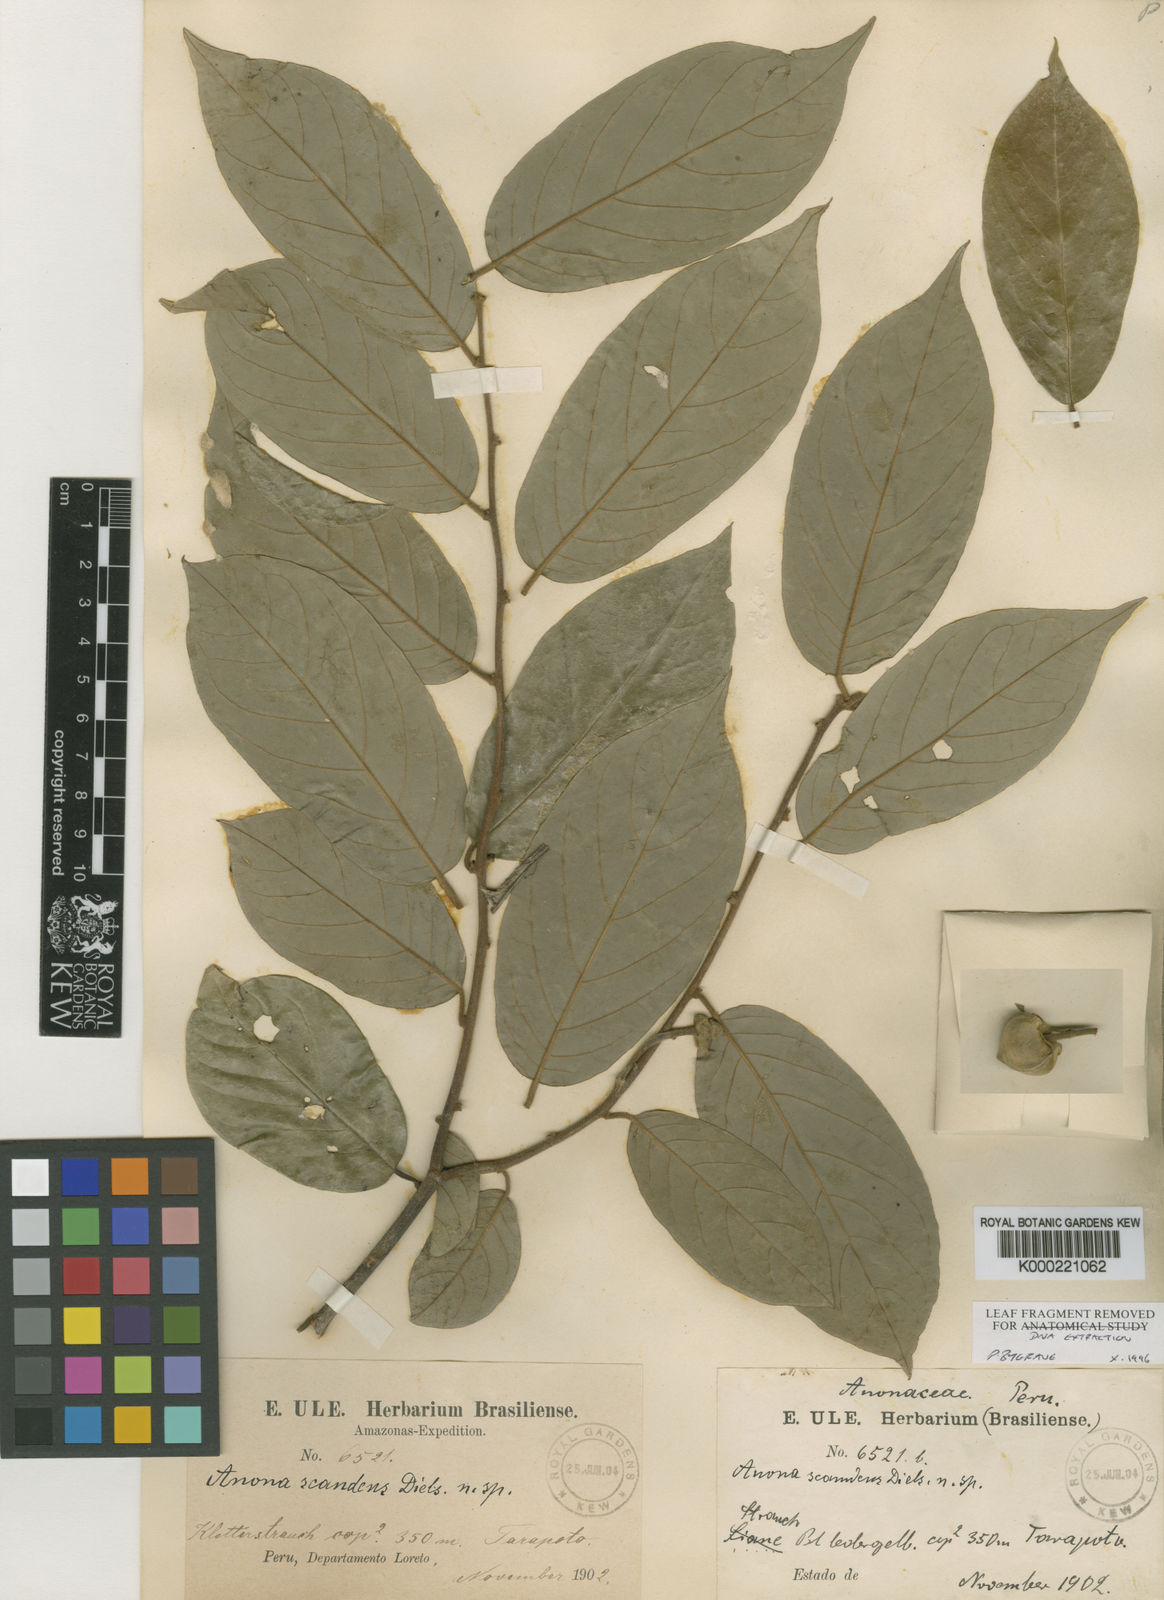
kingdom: Plantae
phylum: Tracheophyta
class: Magnoliopsida
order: Magnoliales
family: Annonaceae
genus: Annona
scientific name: Annona
